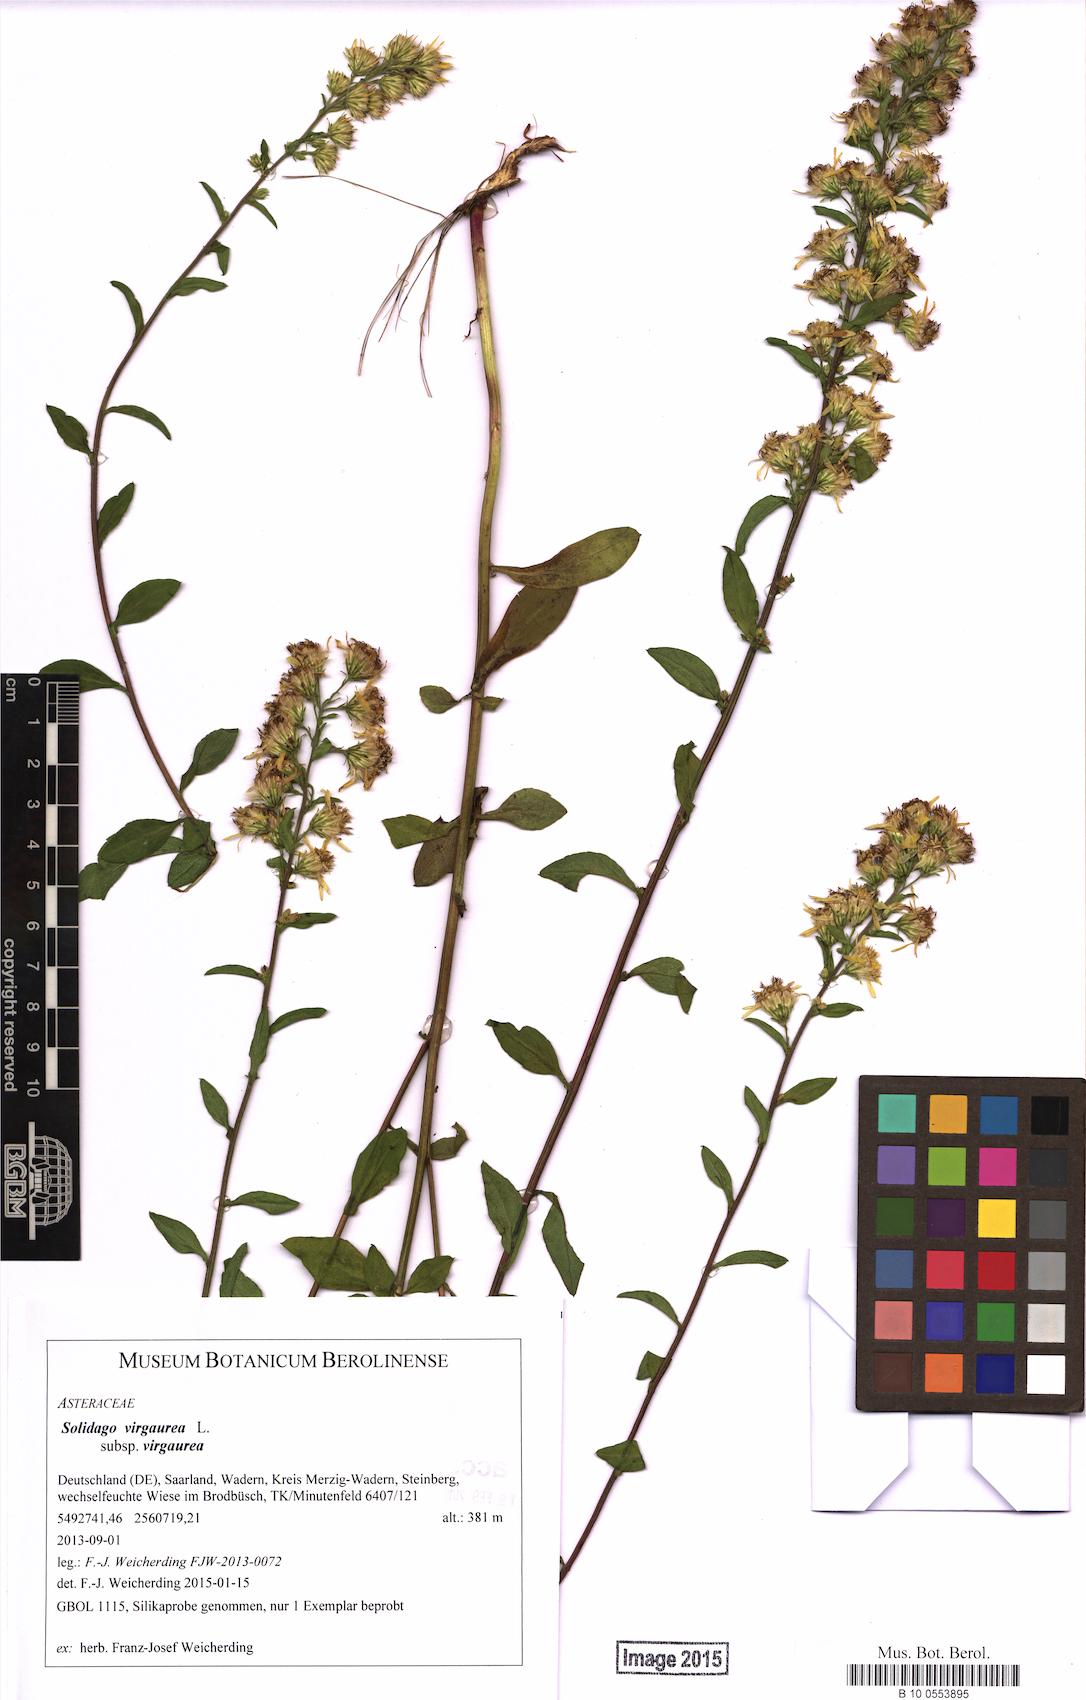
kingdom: Plantae
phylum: Tracheophyta
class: Magnoliopsida
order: Asterales
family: Asteraceae
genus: Solidago
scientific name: Solidago virgaurea
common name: Goldenrod
